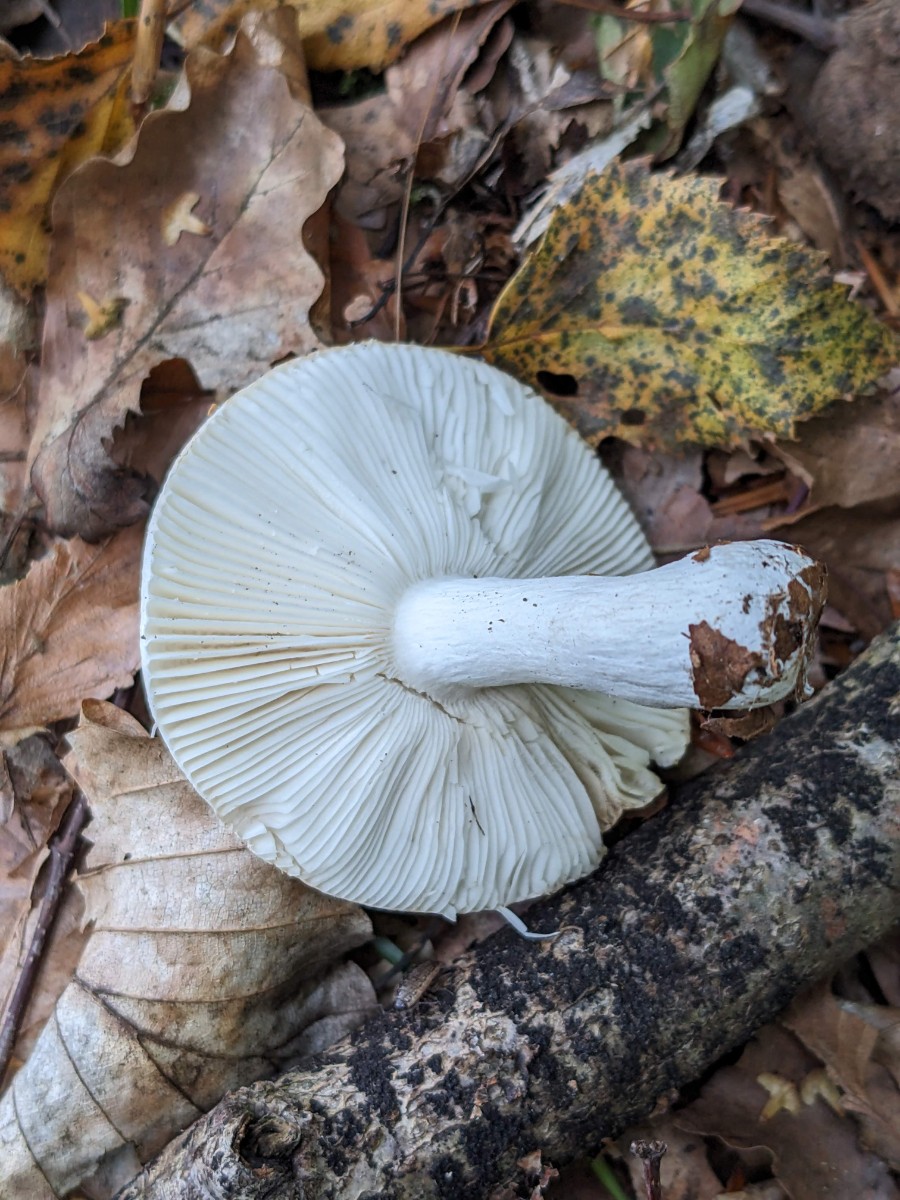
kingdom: Fungi
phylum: Basidiomycota
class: Agaricomycetes
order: Russulales
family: Russulaceae
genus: Russula
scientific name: Russula roseoaurantia
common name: kornet skørhat
